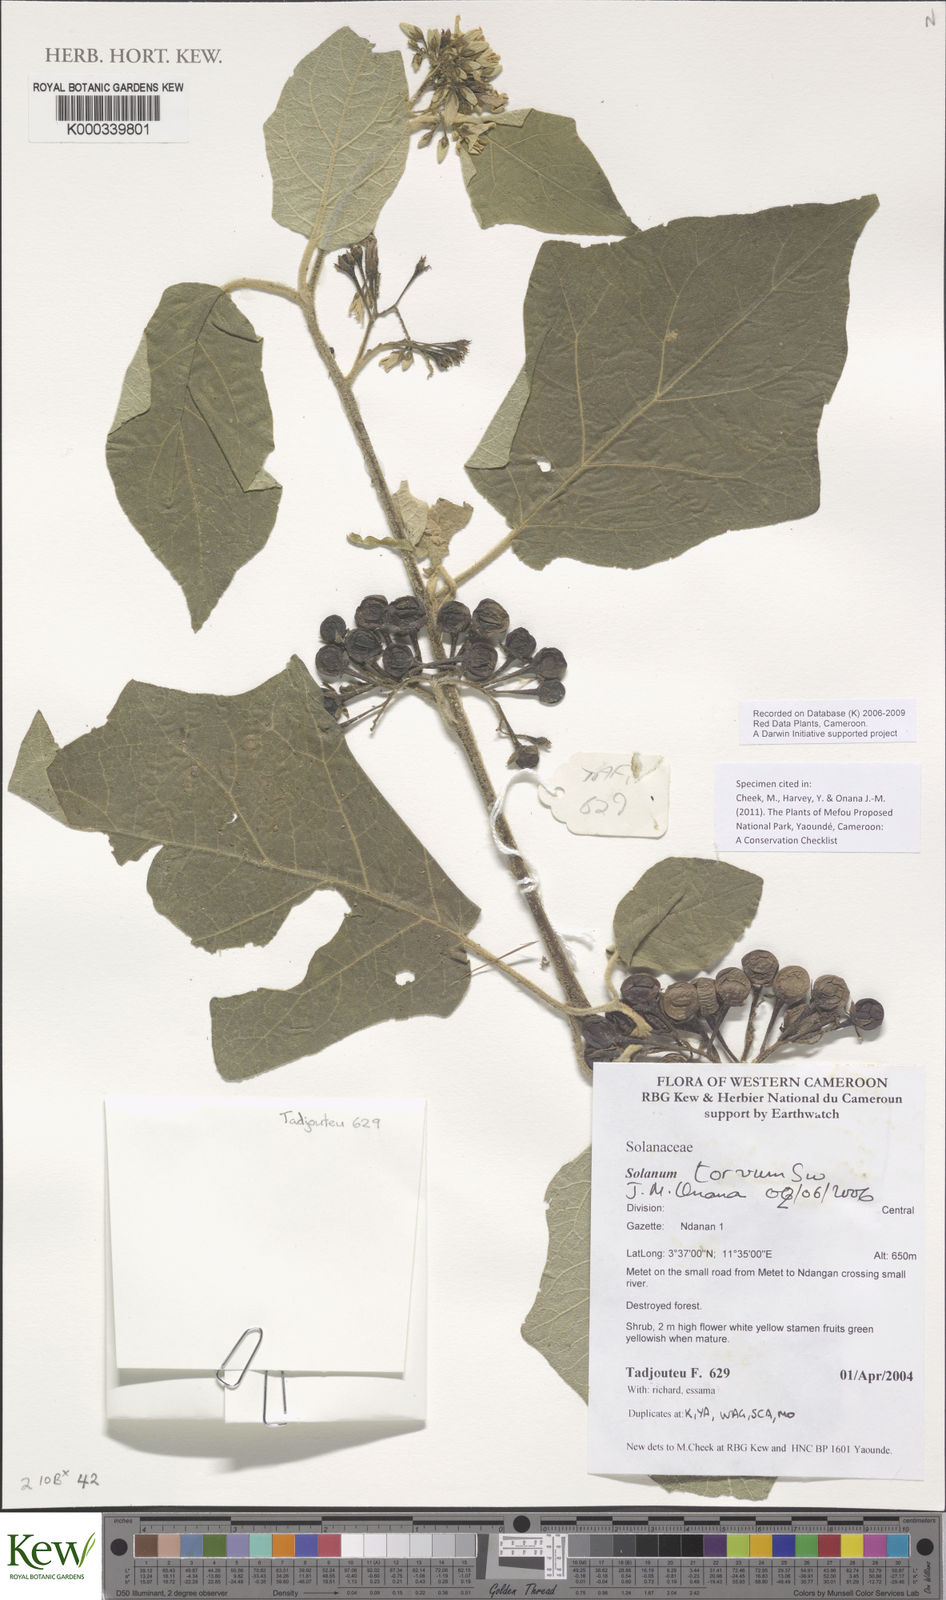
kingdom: Plantae
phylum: Tracheophyta
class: Magnoliopsida
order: Solanales
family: Solanaceae
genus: Solanum
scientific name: Solanum torvum
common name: Turkey berry
